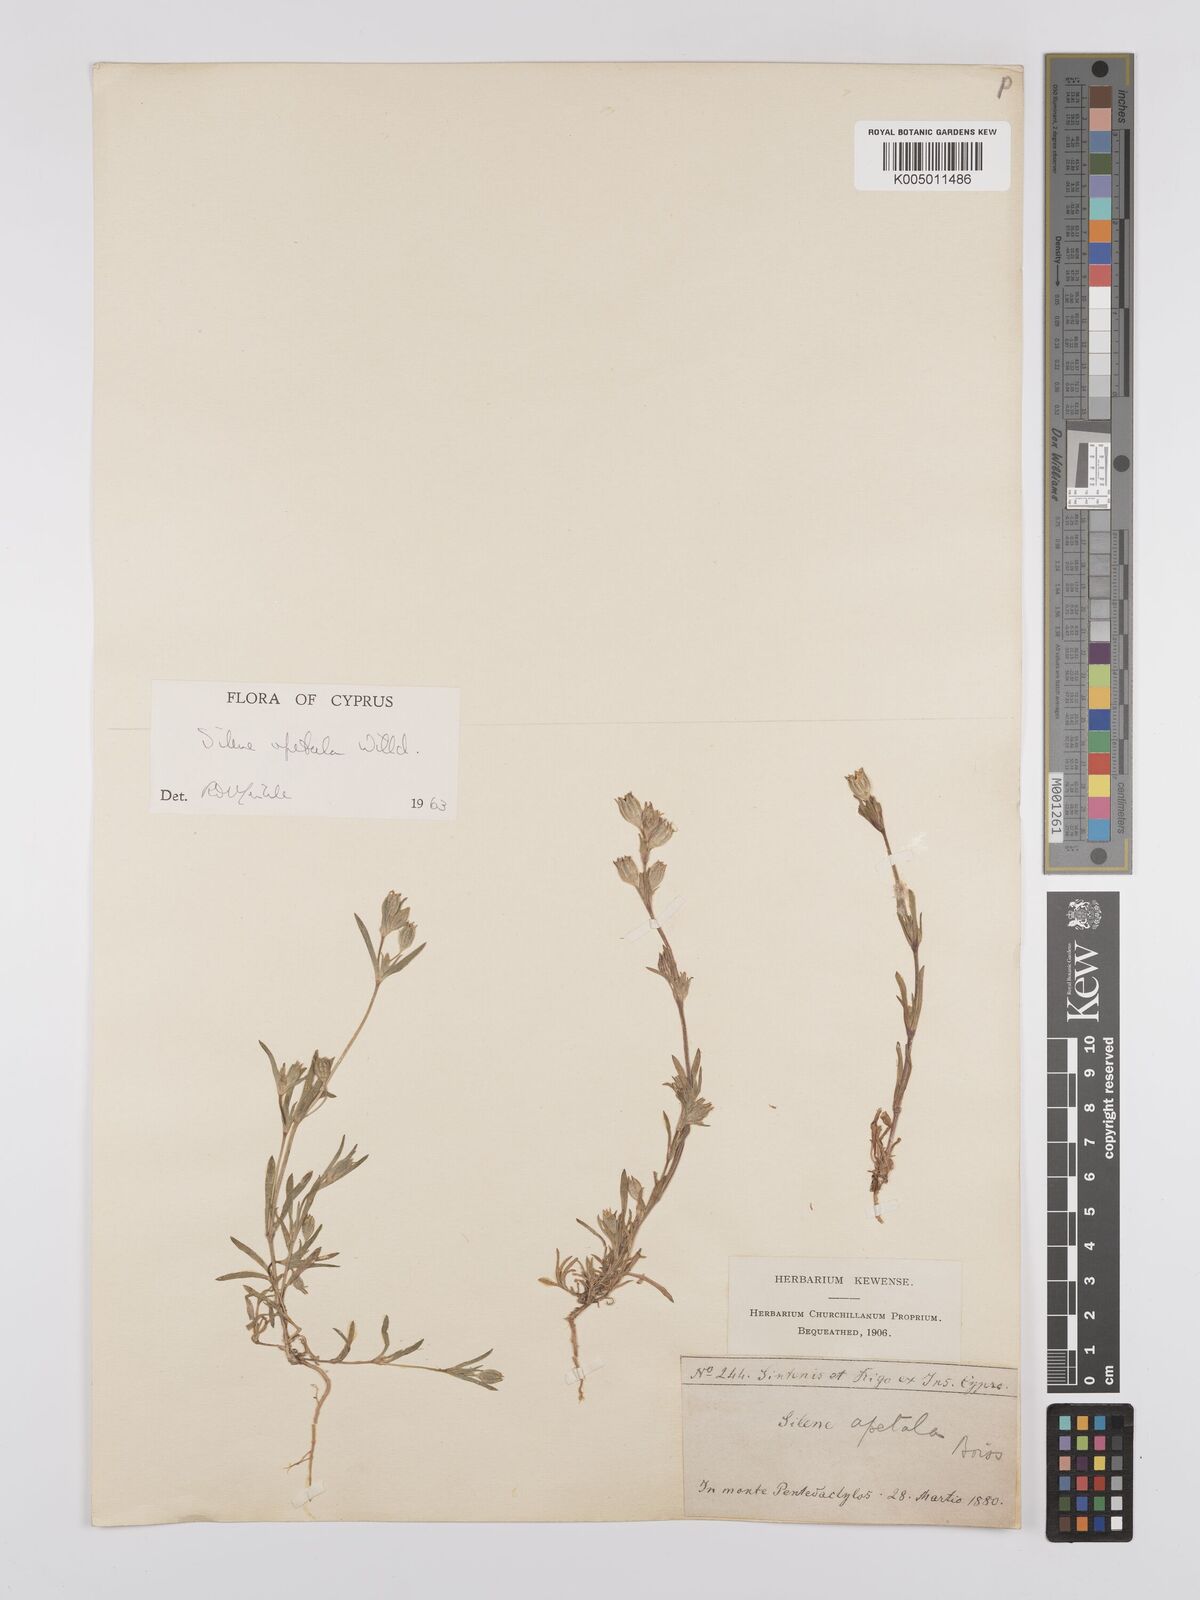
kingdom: Plantae
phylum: Tracheophyta
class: Magnoliopsida
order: Caryophyllales
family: Caryophyllaceae
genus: Silene
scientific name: Silene apetala
